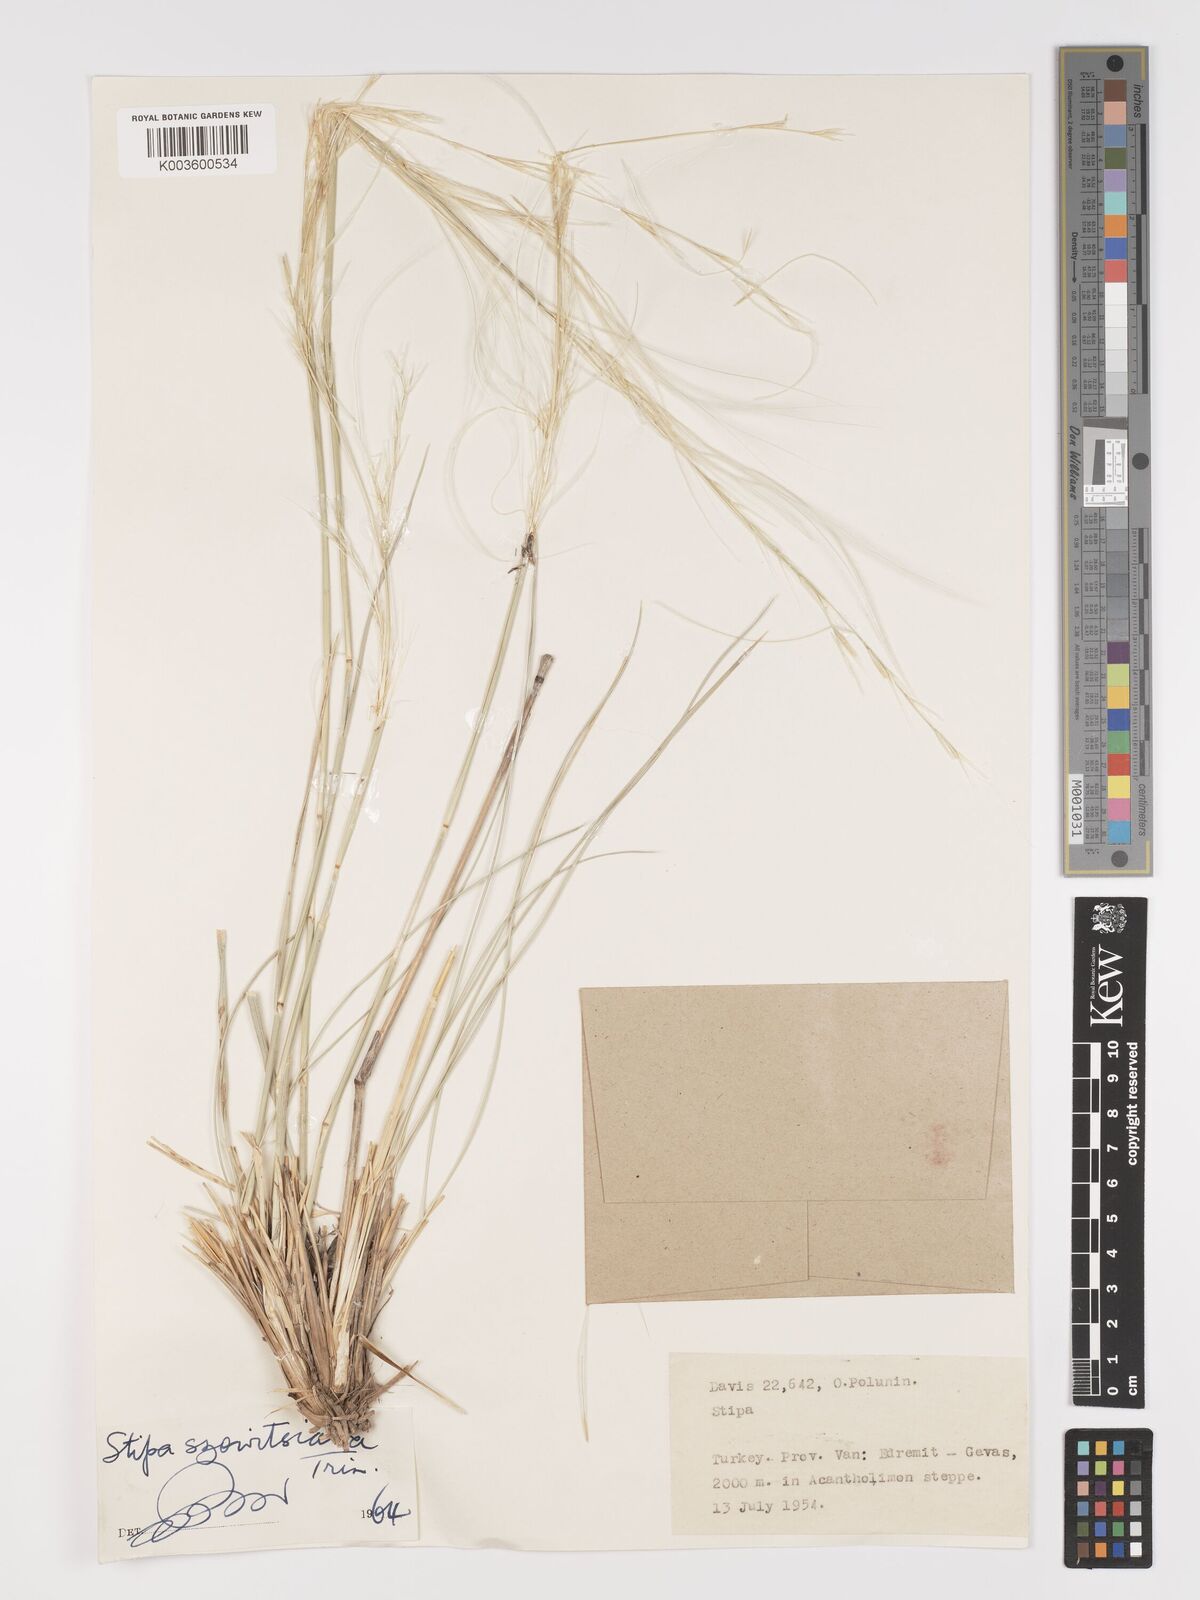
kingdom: Plantae
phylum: Tracheophyta
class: Liliopsida
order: Poales
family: Poaceae
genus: Stipa
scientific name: Stipa barbata
